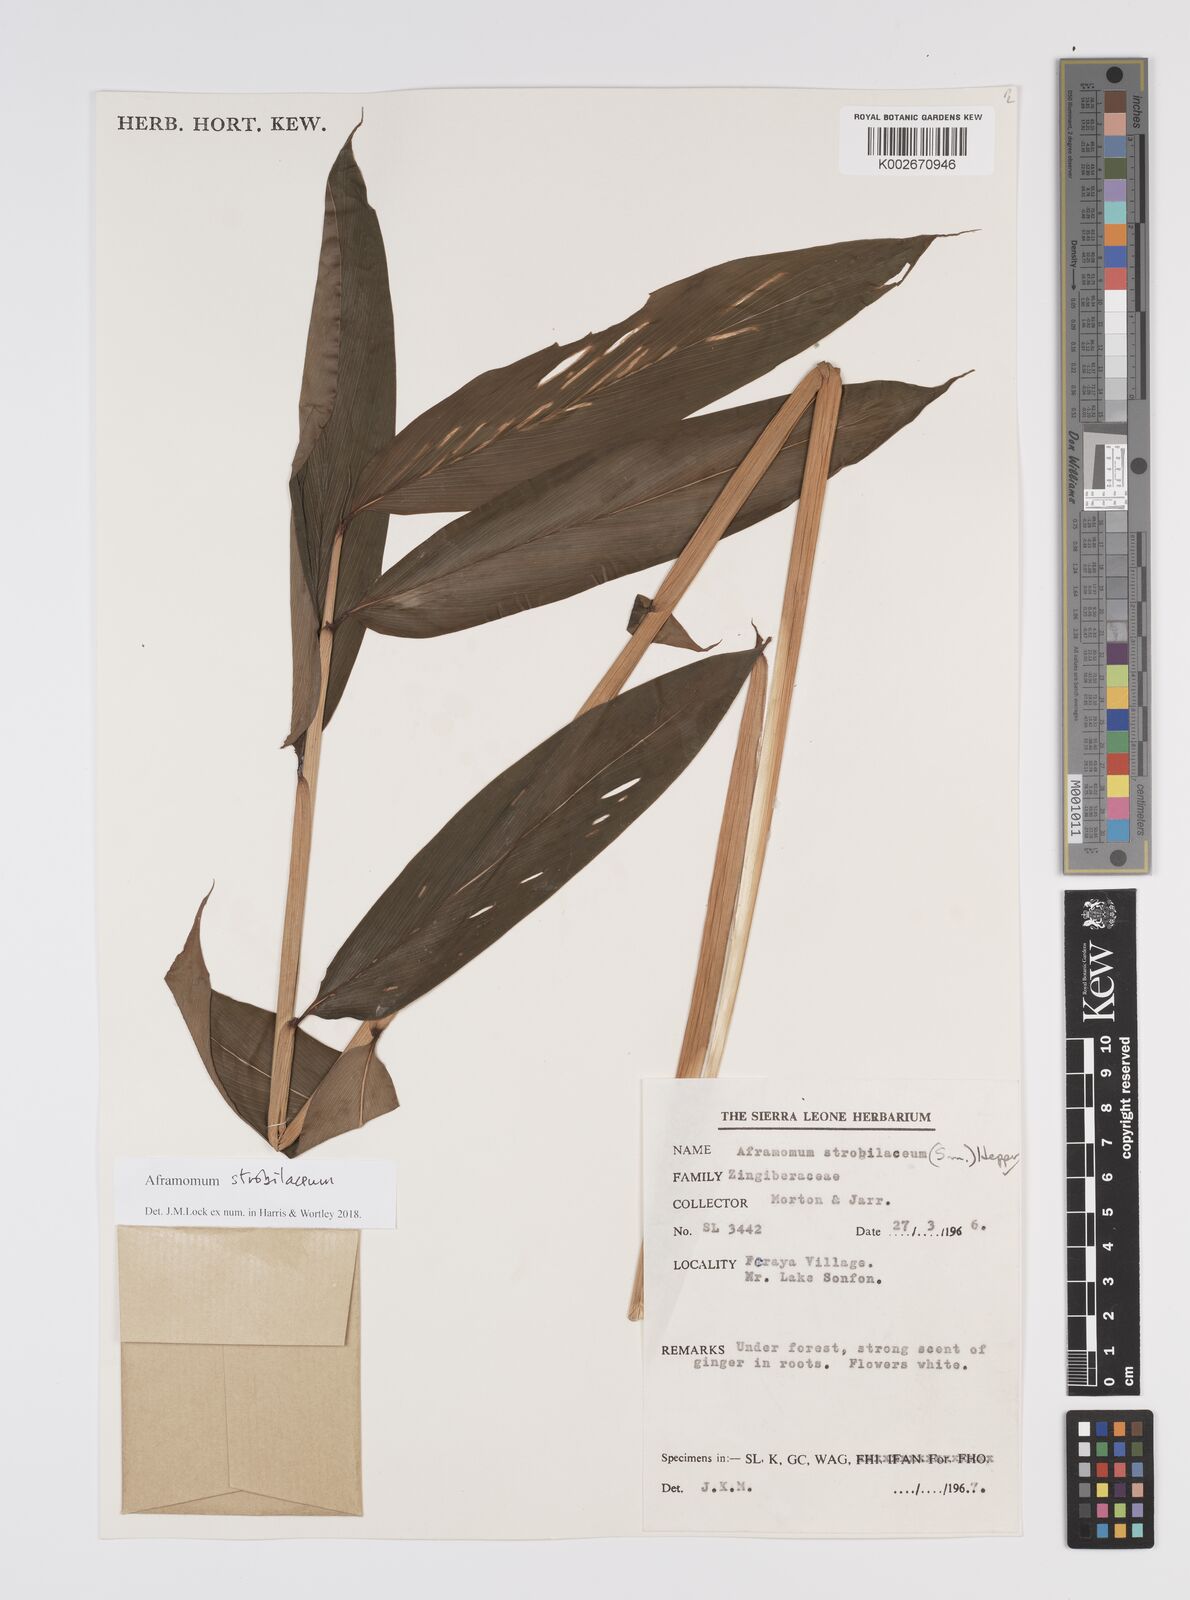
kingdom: Plantae
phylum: Tracheophyta
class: Liliopsida
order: Zingiberales
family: Zingiberaceae
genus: Aframomum
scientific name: Aframomum strobilaceum
